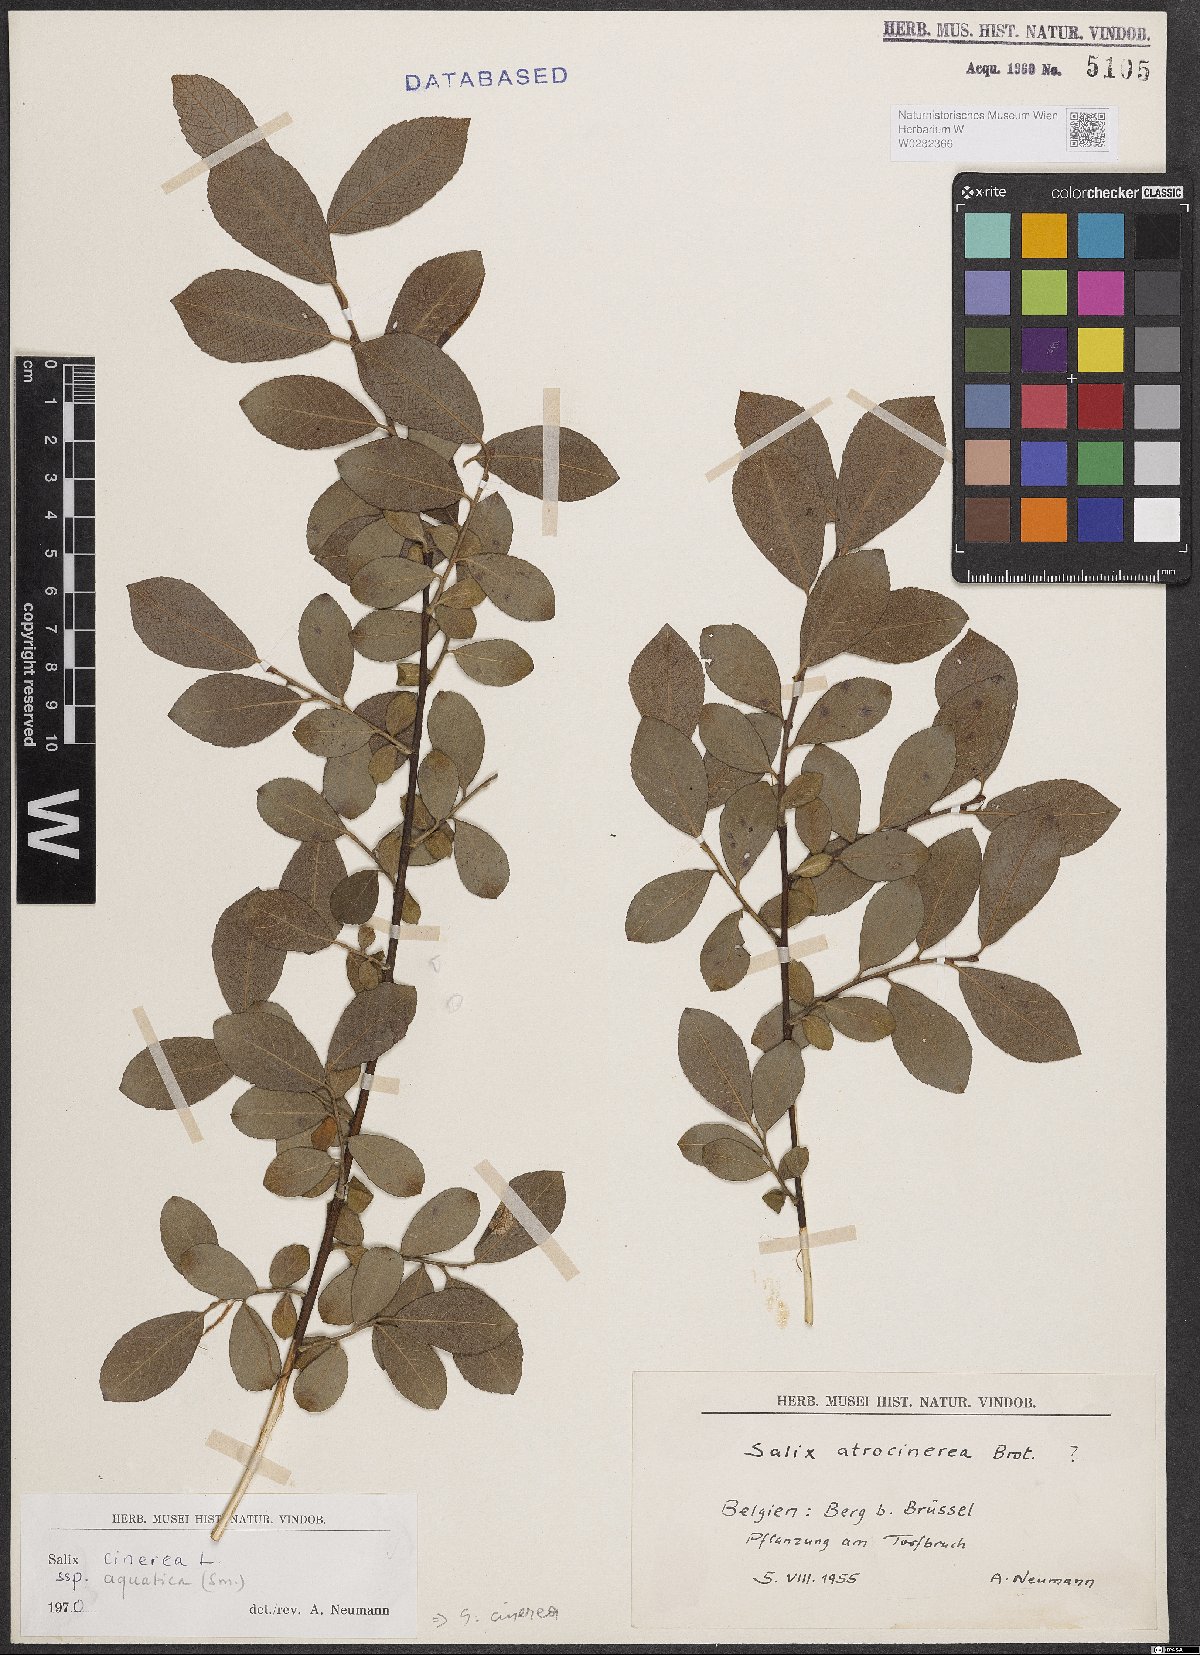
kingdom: Plantae
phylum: Tracheophyta
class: Magnoliopsida
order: Malpighiales
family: Salicaceae
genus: Salix
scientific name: Salix cinerea
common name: Common sallow
